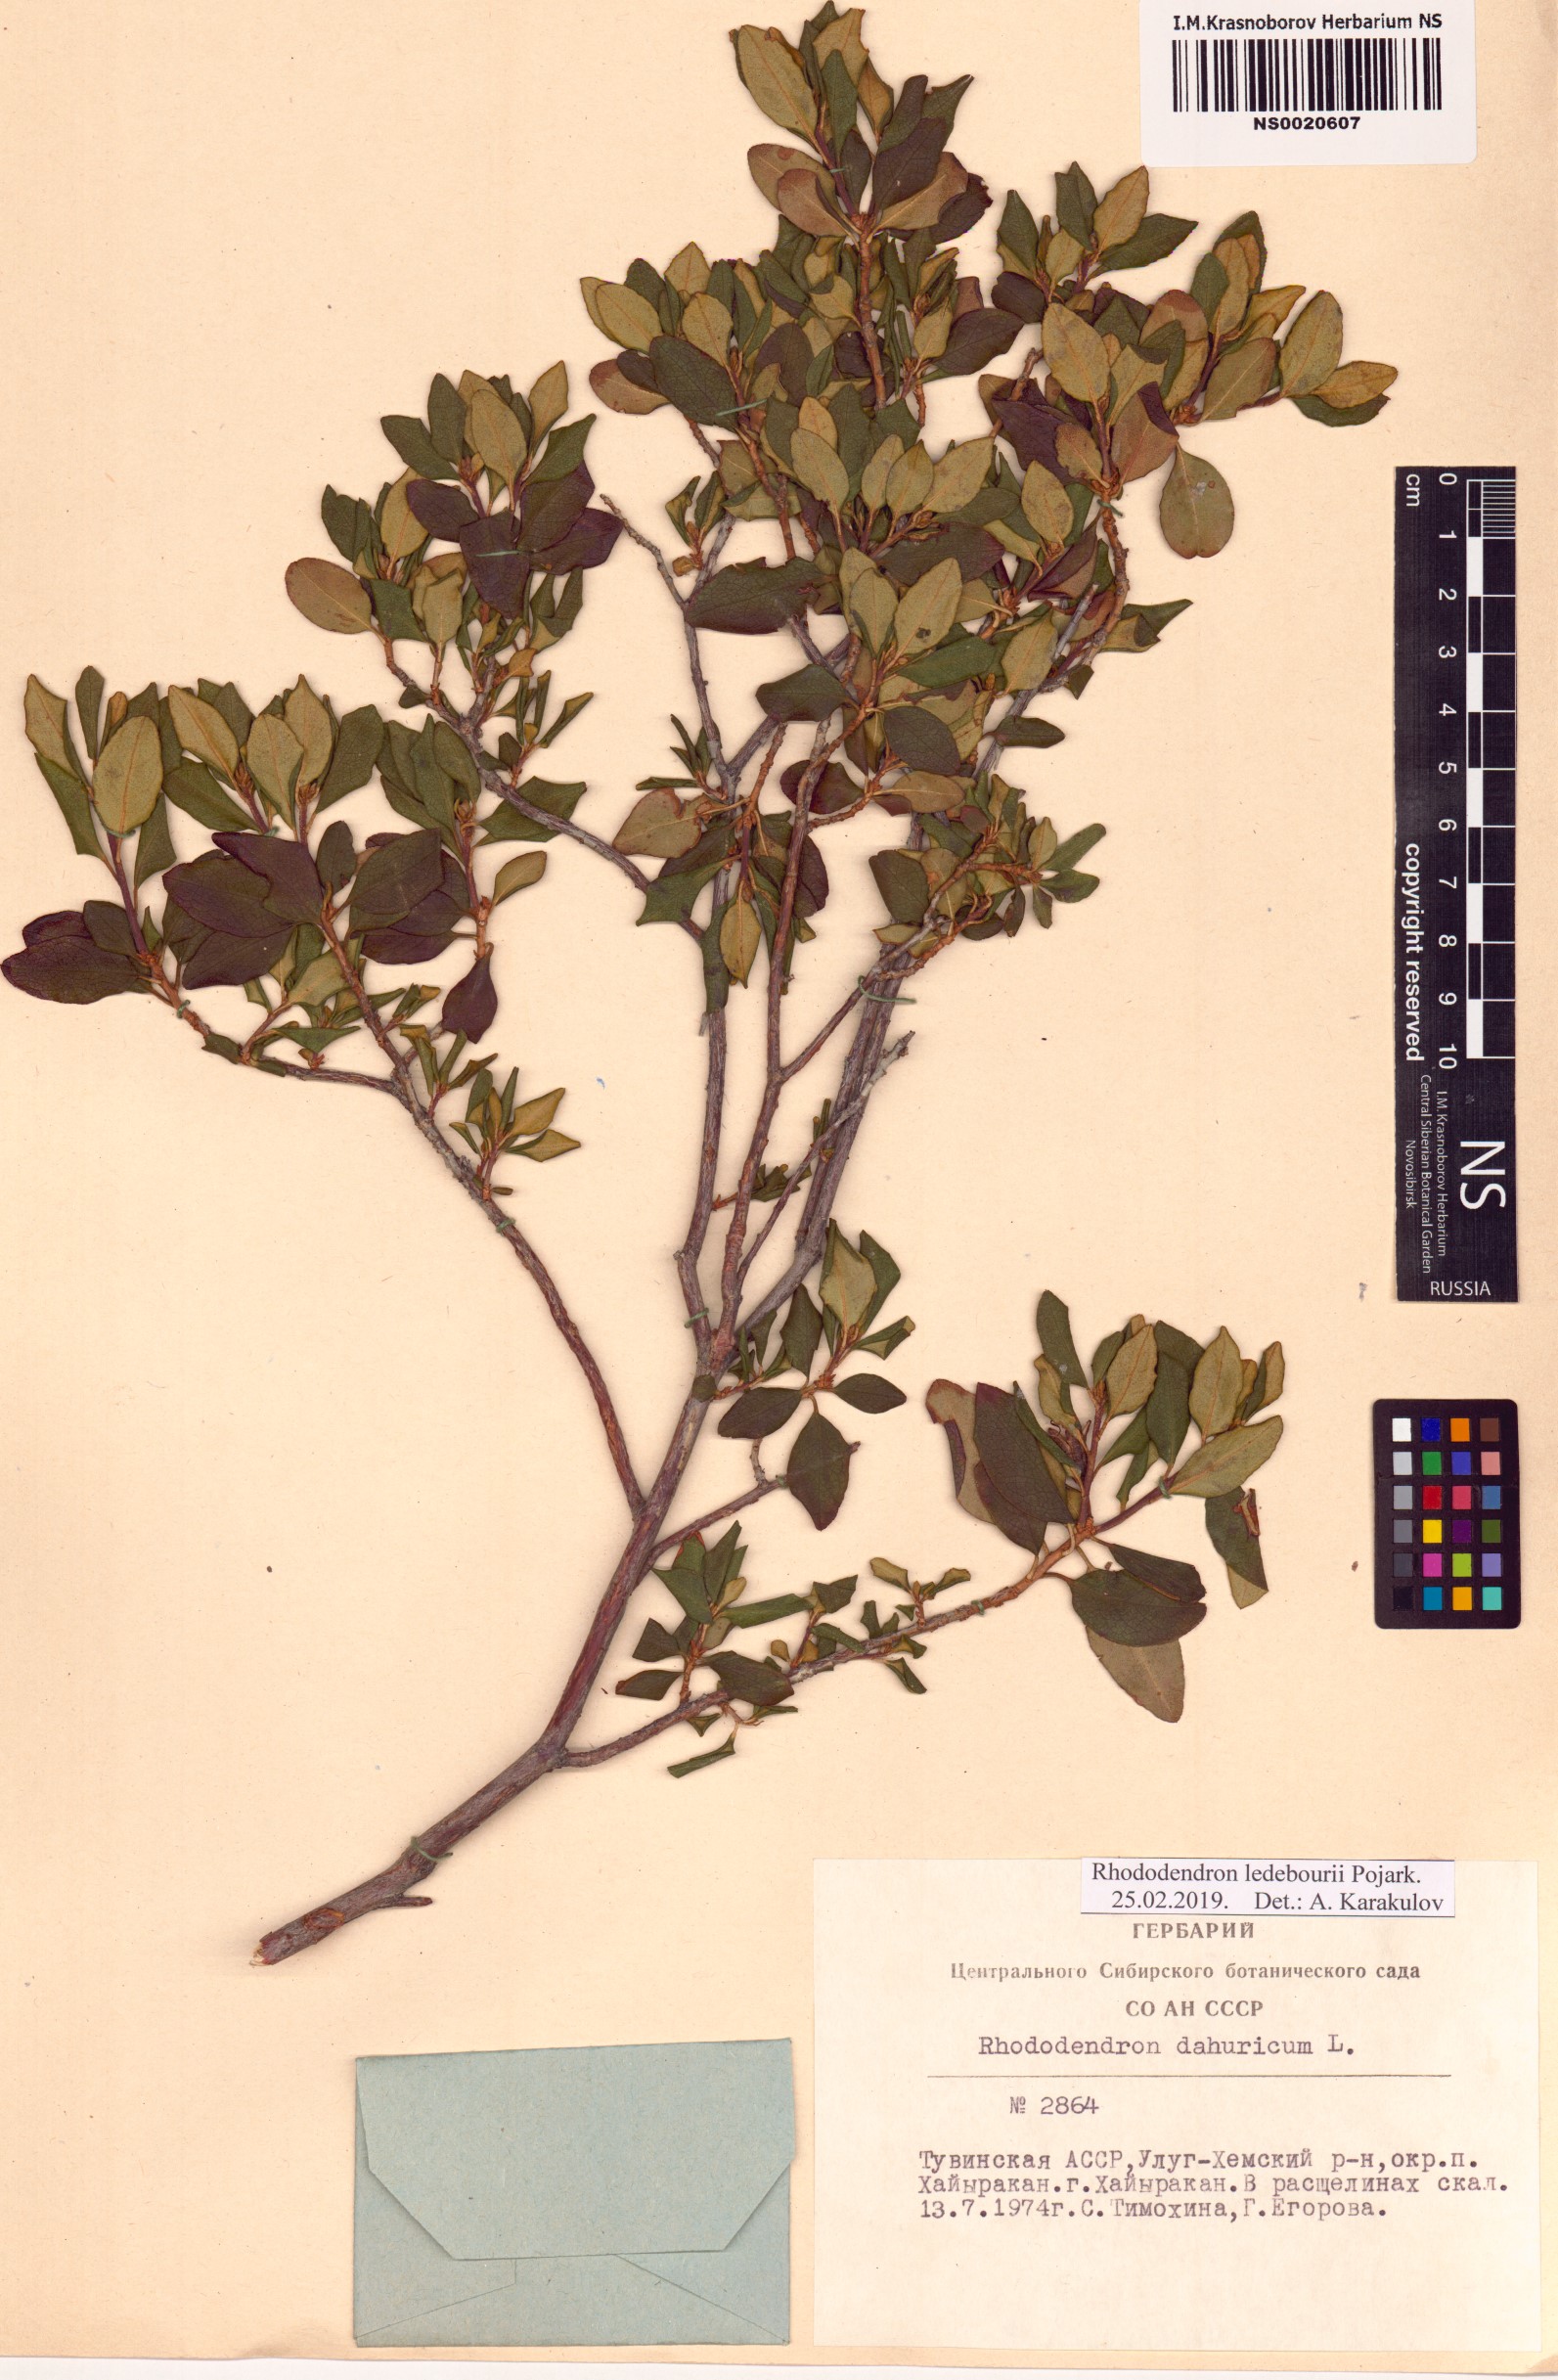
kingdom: Plantae
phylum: Tracheophyta
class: Magnoliopsida
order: Ericales
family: Ericaceae
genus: Rhododendron
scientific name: Rhododendron dauricum
